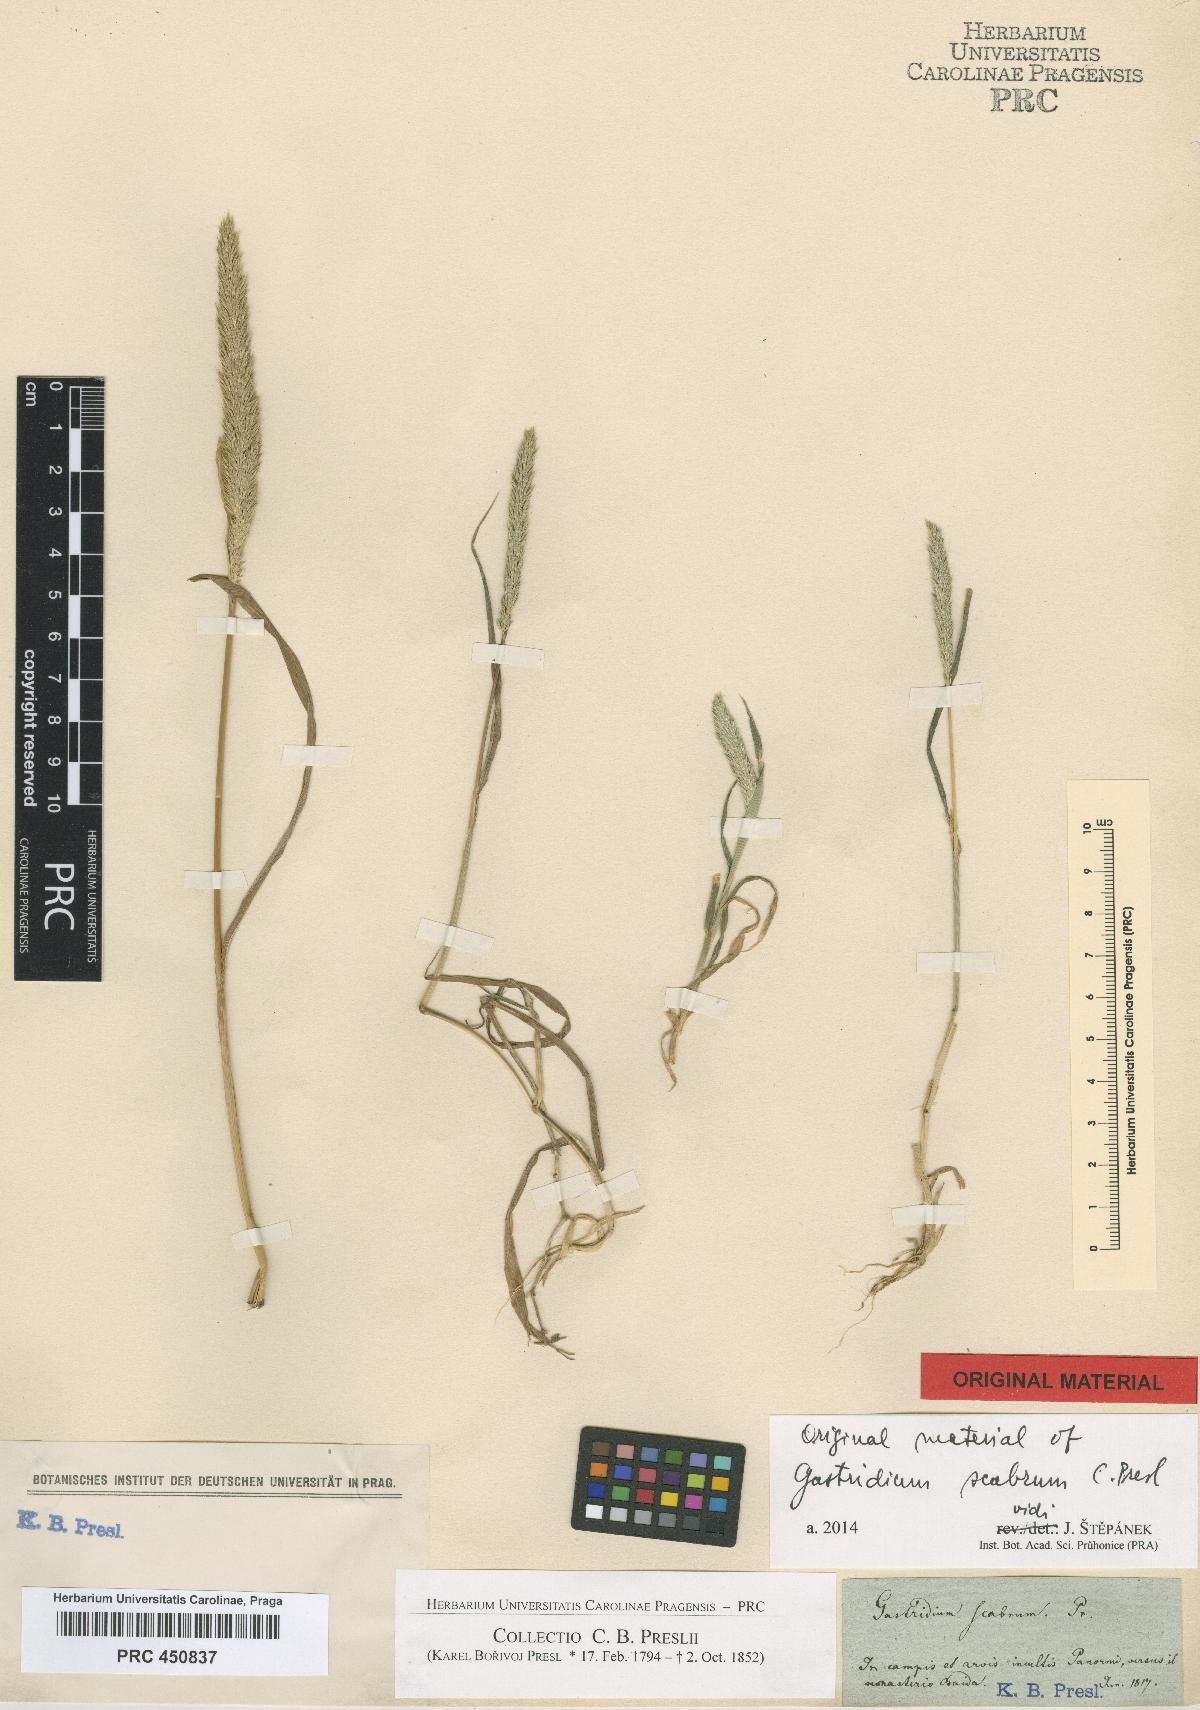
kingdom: Plantae
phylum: Tracheophyta
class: Liliopsida
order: Poales
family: Poaceae
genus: Gastridium
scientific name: Gastridium scabrum
